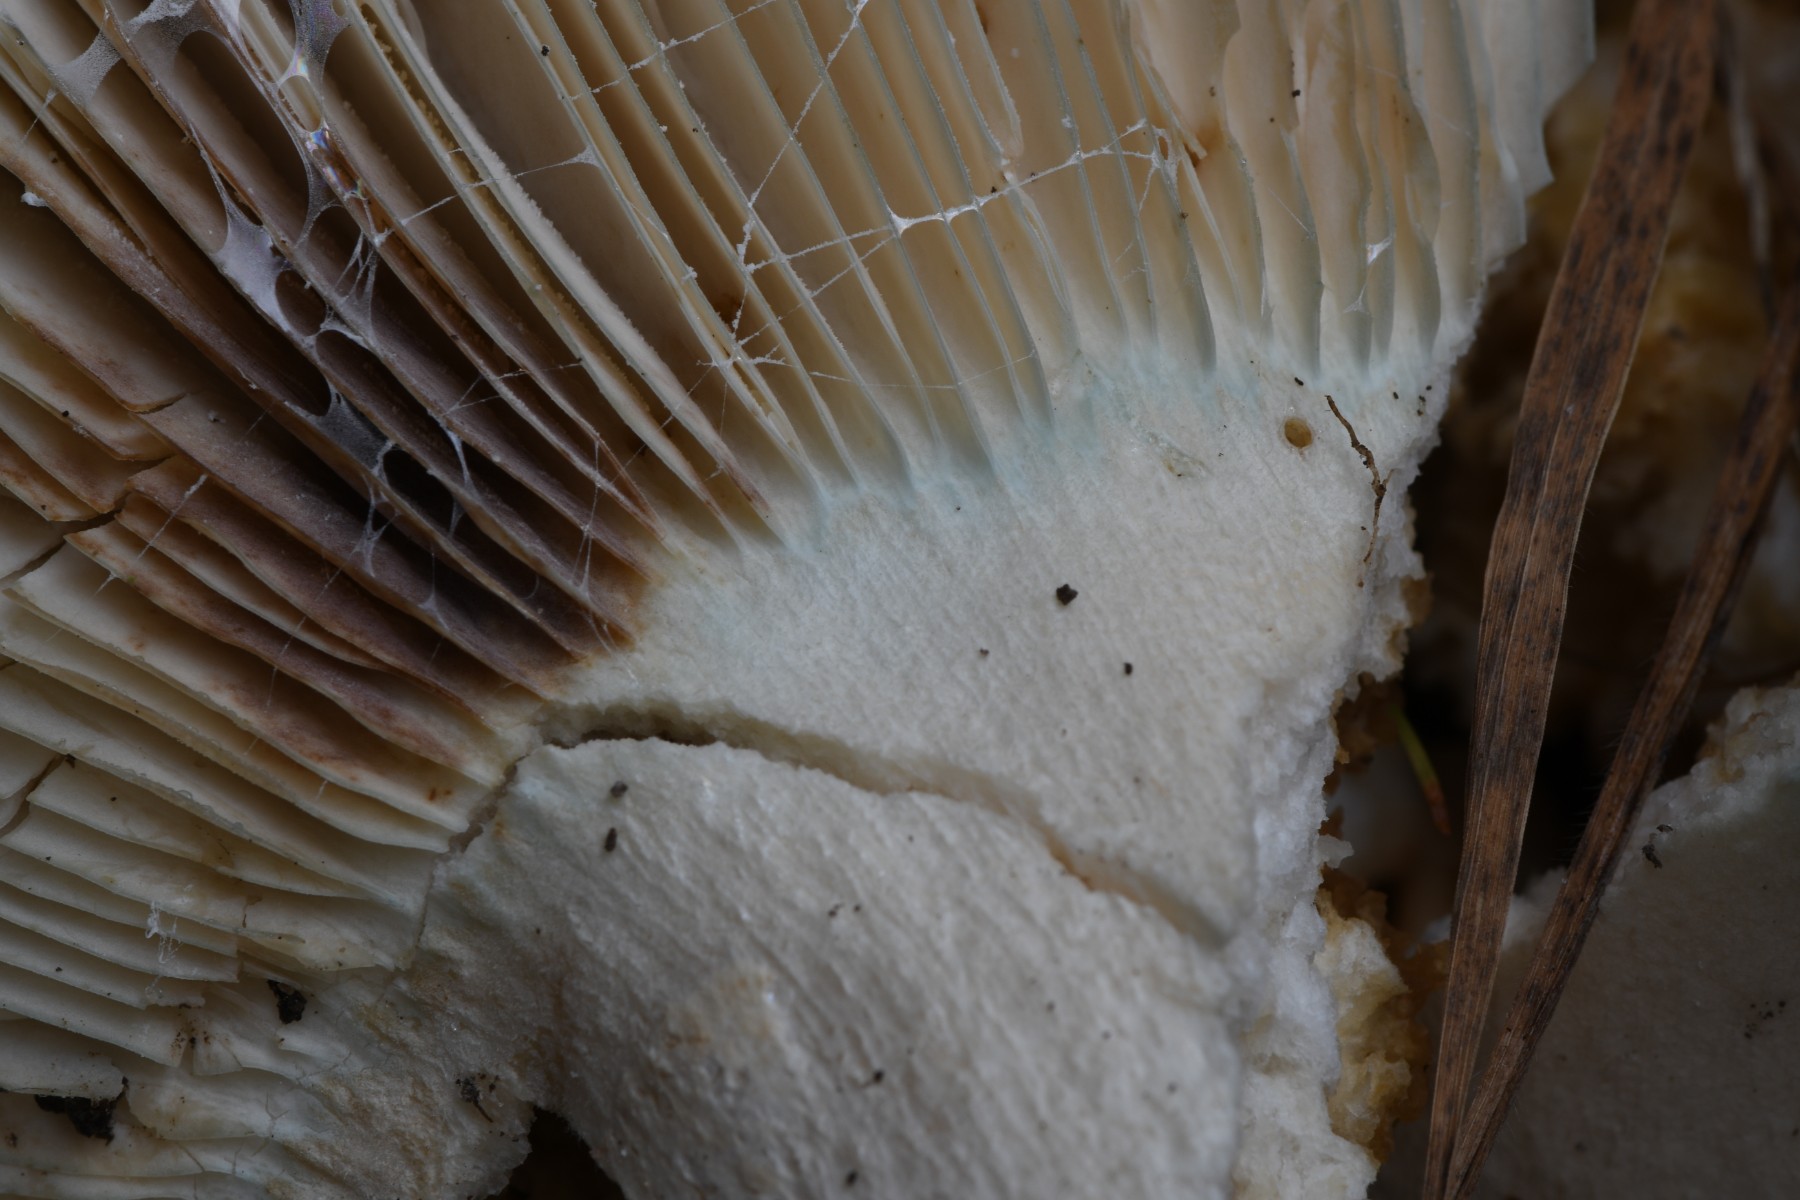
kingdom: Fungi
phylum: Basidiomycota
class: Agaricomycetes
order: Russulales
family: Russulaceae
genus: Russula
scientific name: Russula chloroides
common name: grønhalset tragt-skørhat
